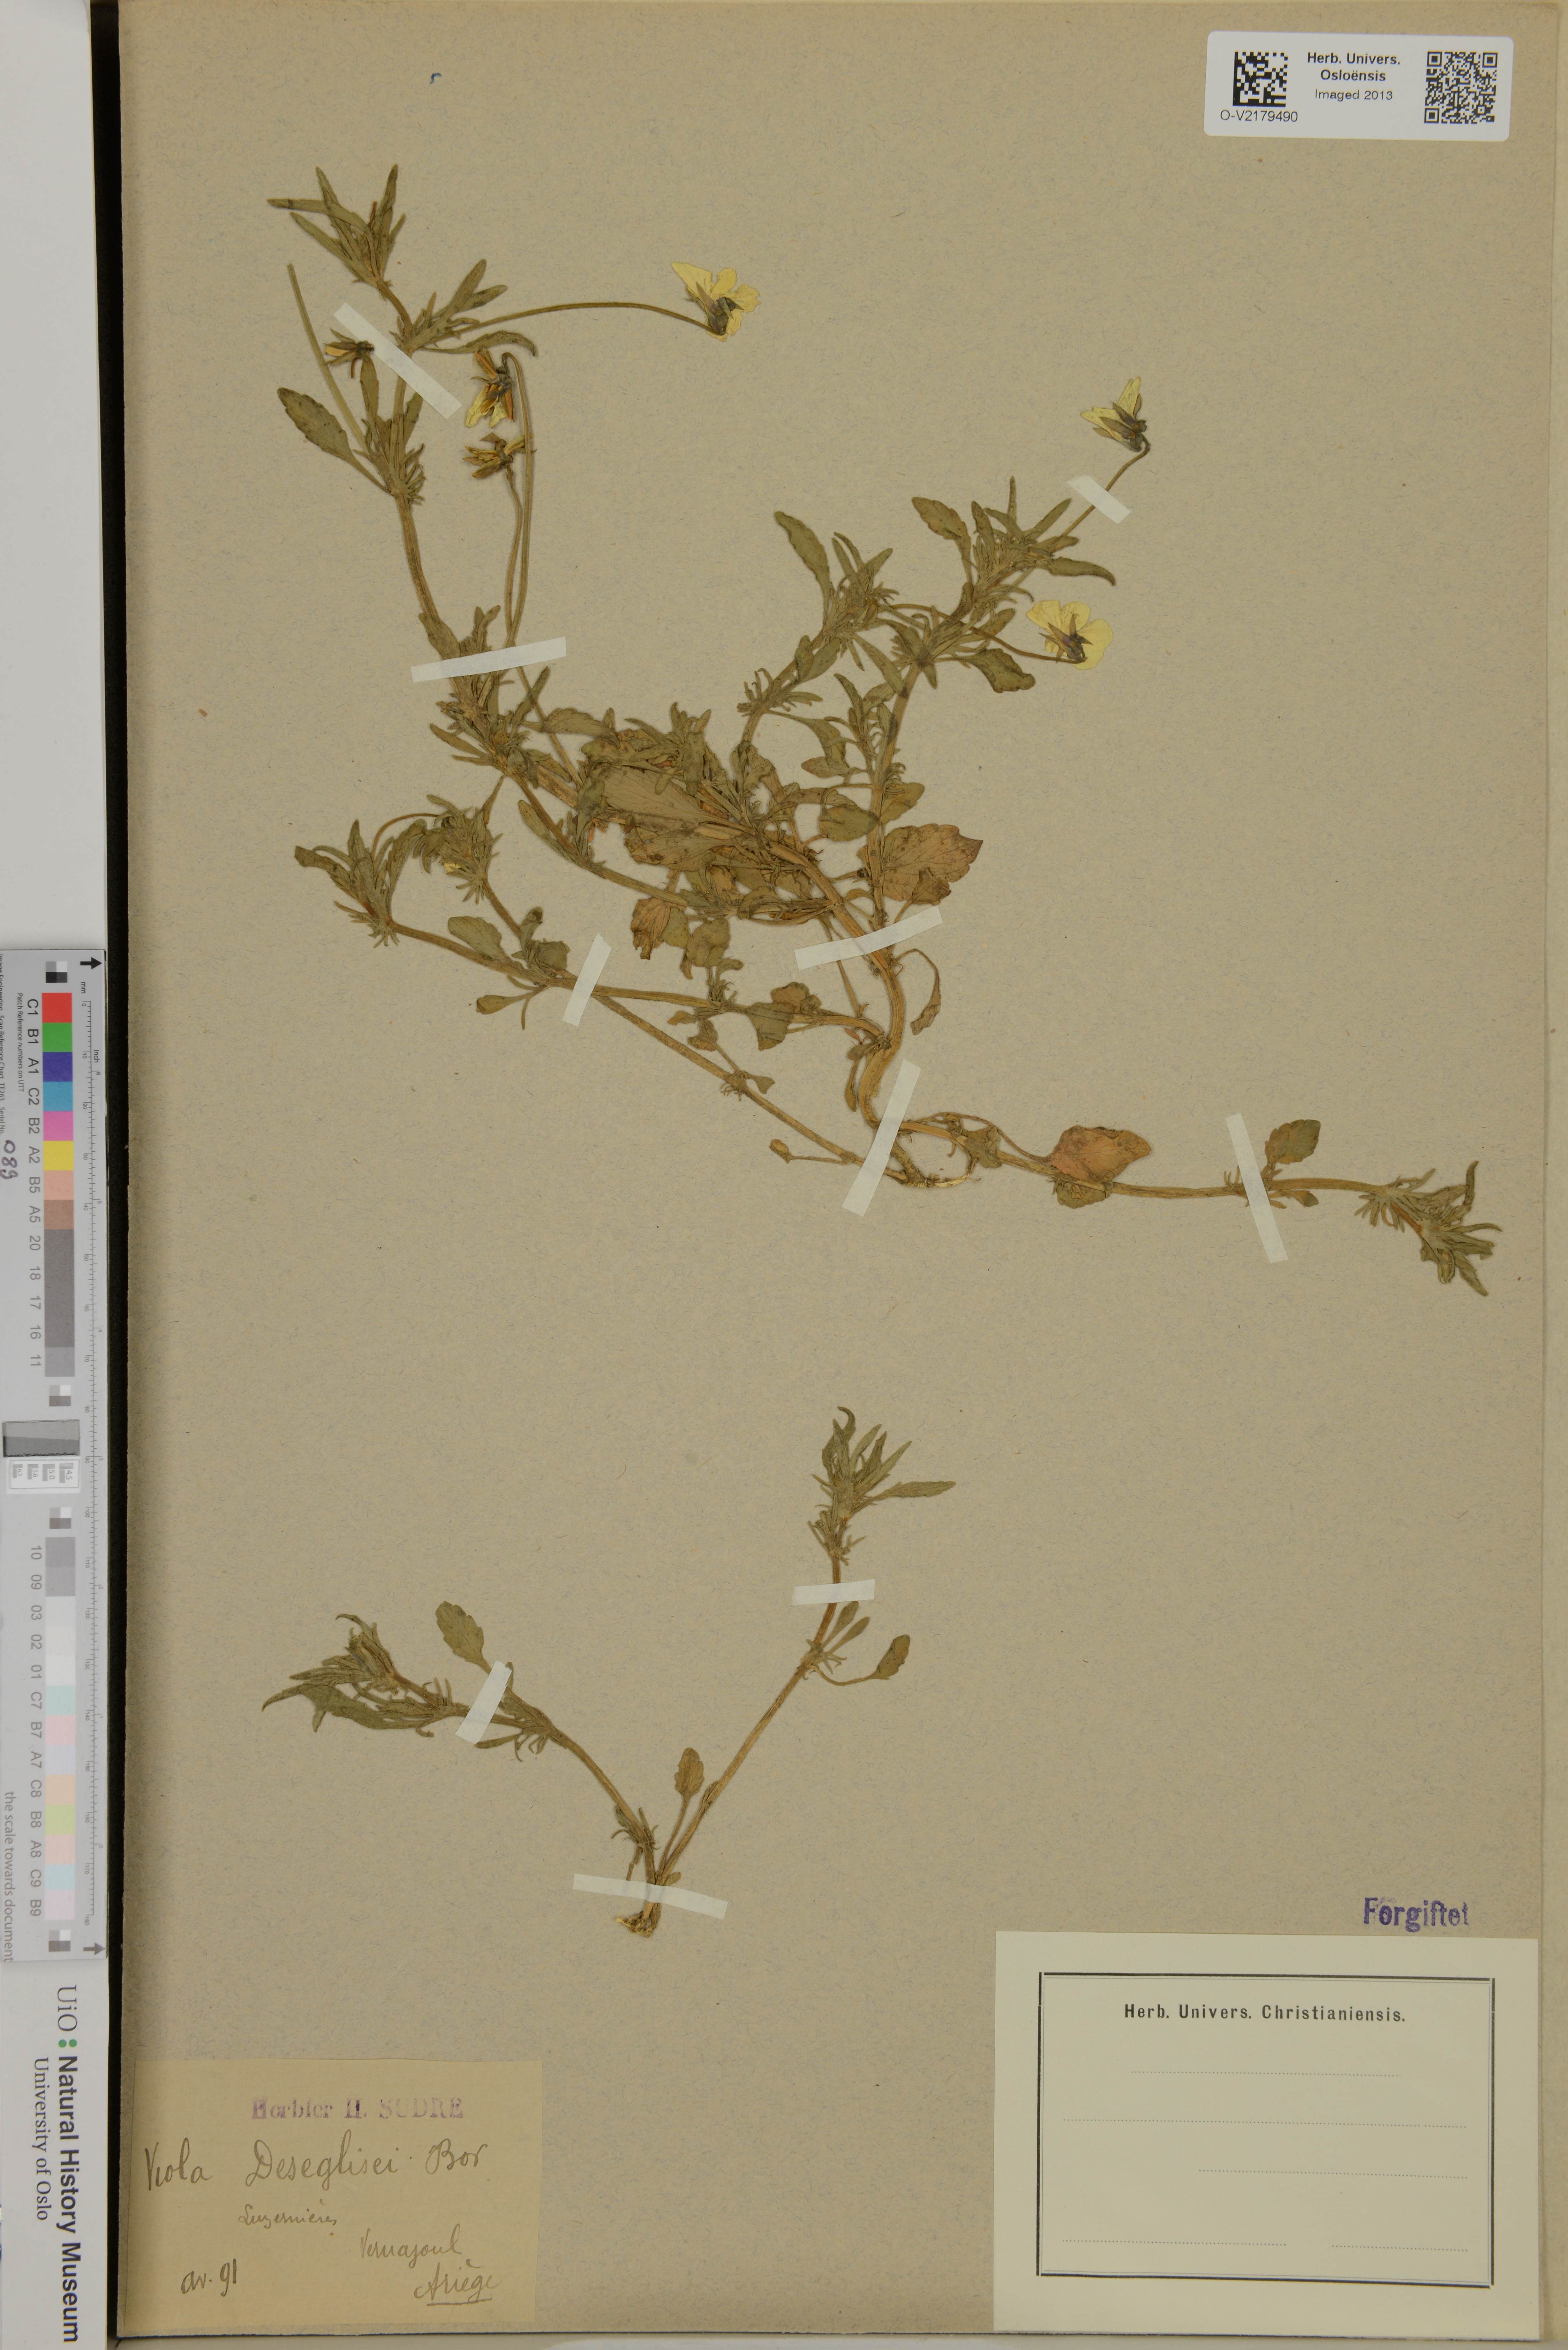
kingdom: Plantae
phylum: Tracheophyta
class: Magnoliopsida
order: Malpighiales
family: Violaceae
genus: Viola
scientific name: Viola arvensis
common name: Field pansy
